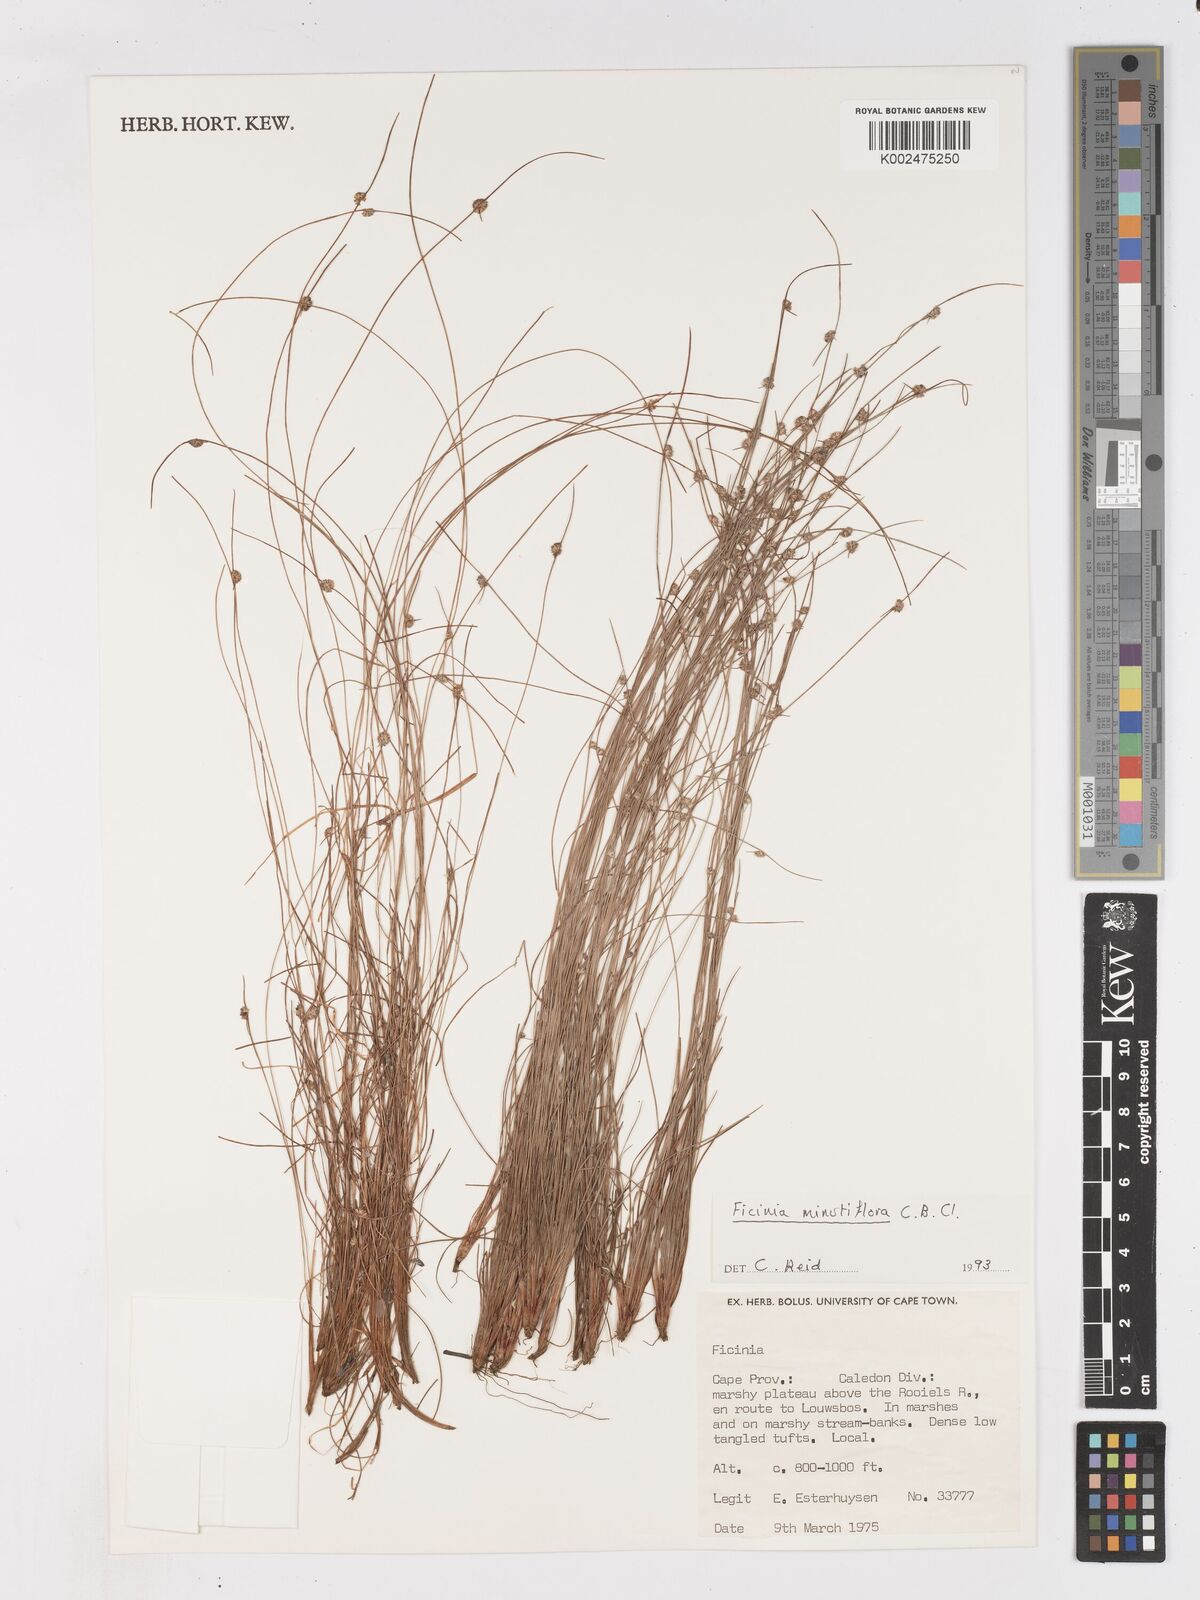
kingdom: Plantae
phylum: Tracheophyta
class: Liliopsida
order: Poales
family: Cyperaceae
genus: Ficinia
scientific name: Ficinia minutiflora
